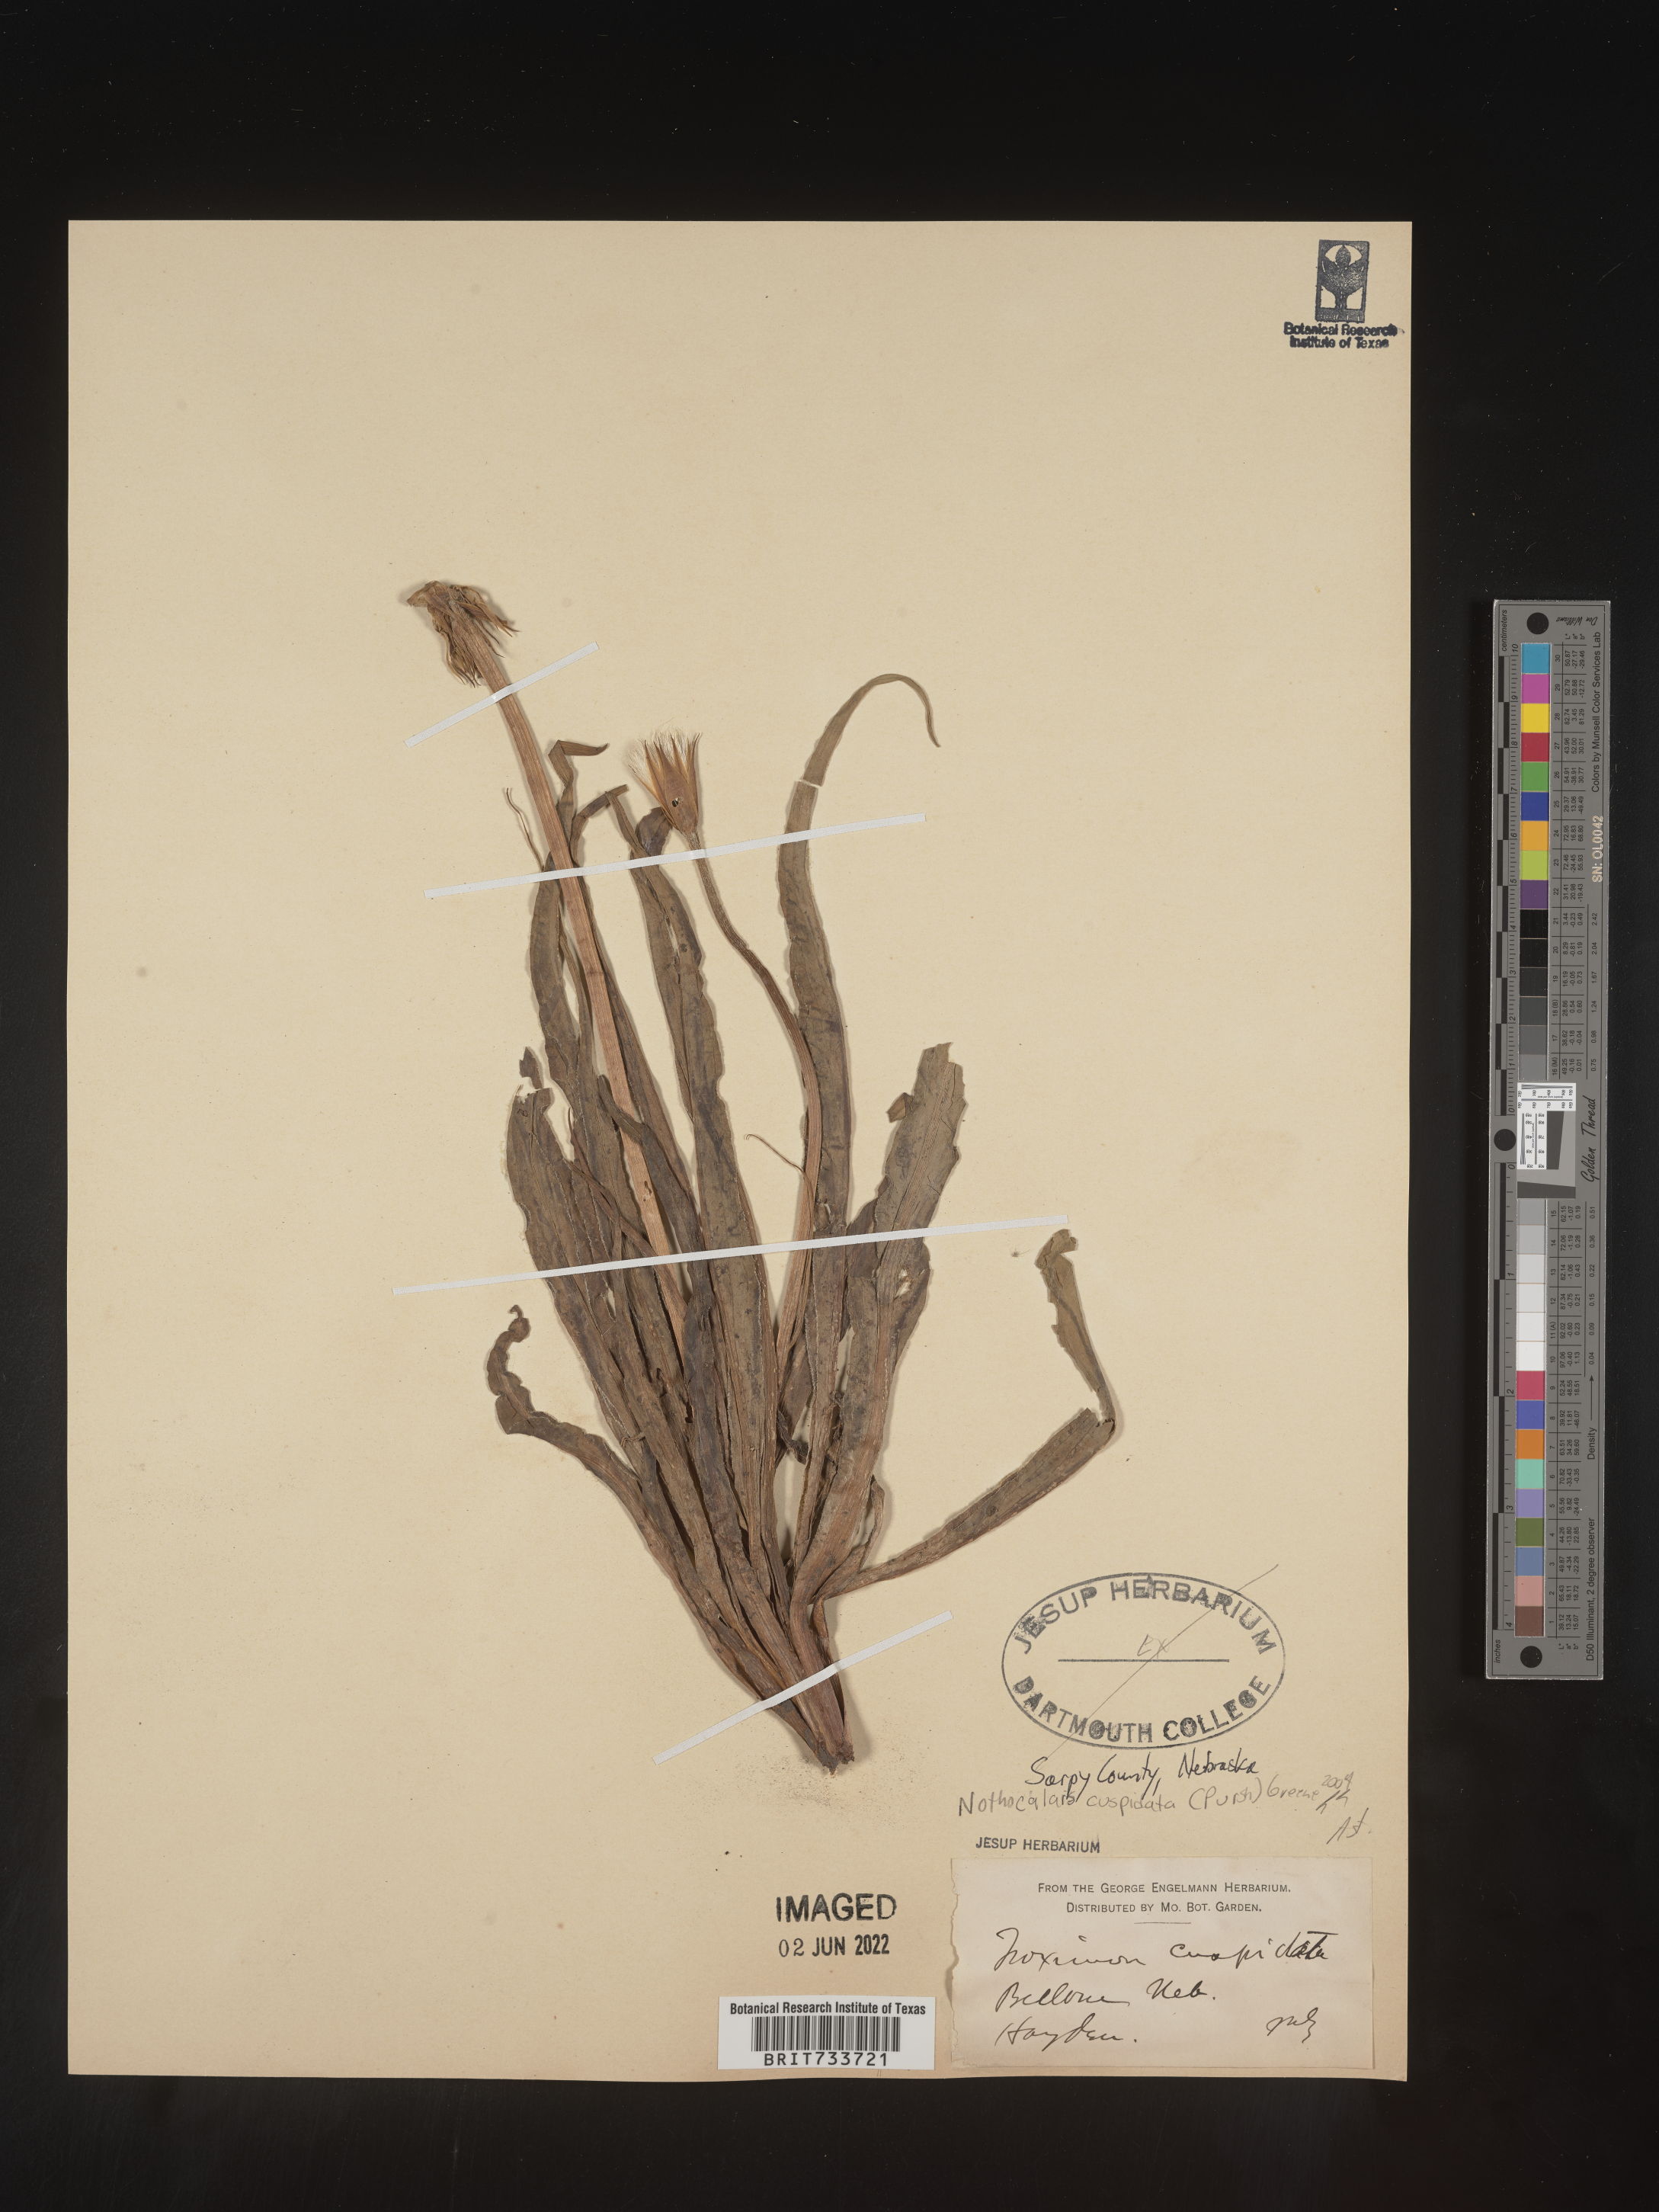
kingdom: Plantae
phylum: Tracheophyta
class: Magnoliopsida
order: Asterales
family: Asteraceae
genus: Microseris
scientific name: Microseris
